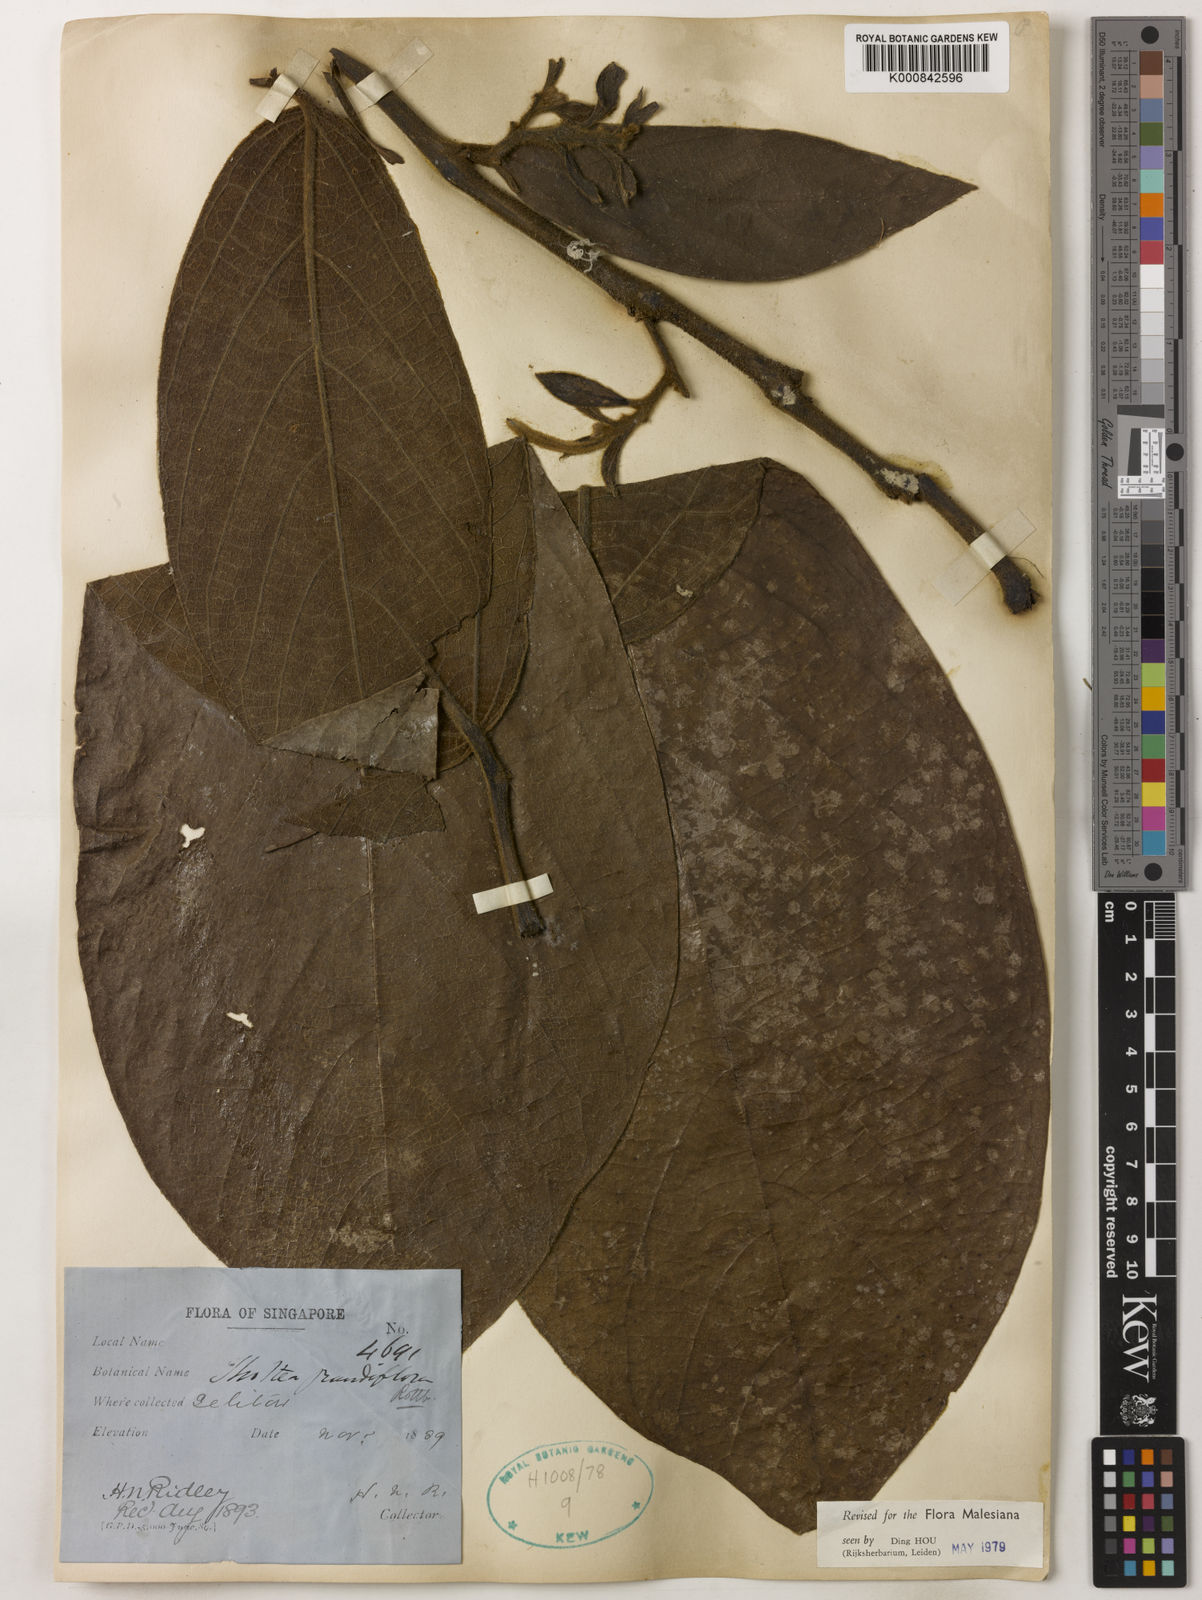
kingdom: Plantae
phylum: Tracheophyta
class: Magnoliopsida
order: Piperales
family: Aristolochiaceae
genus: Thottea
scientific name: Thottea grandiflora
